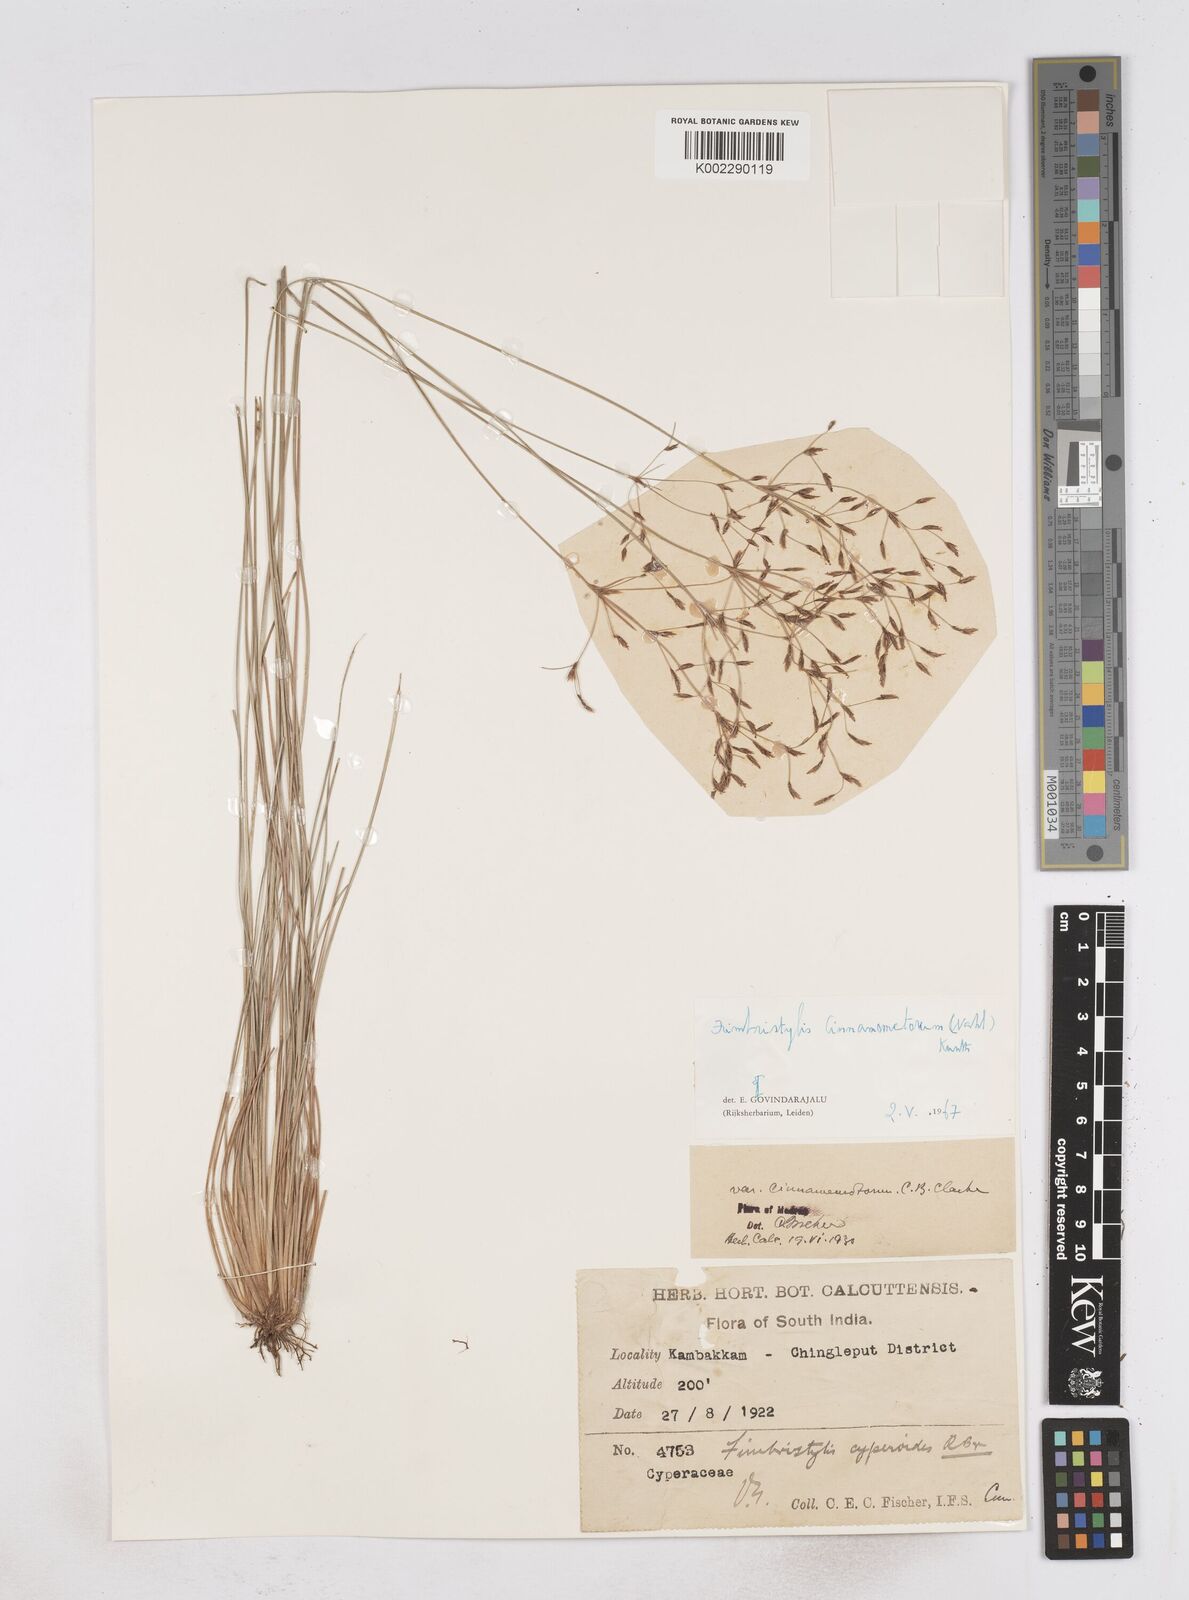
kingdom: Plantae
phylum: Tracheophyta
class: Liliopsida
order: Poales
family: Cyperaceae
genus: Fimbristylis
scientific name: Fimbristylis cinnamometorum
